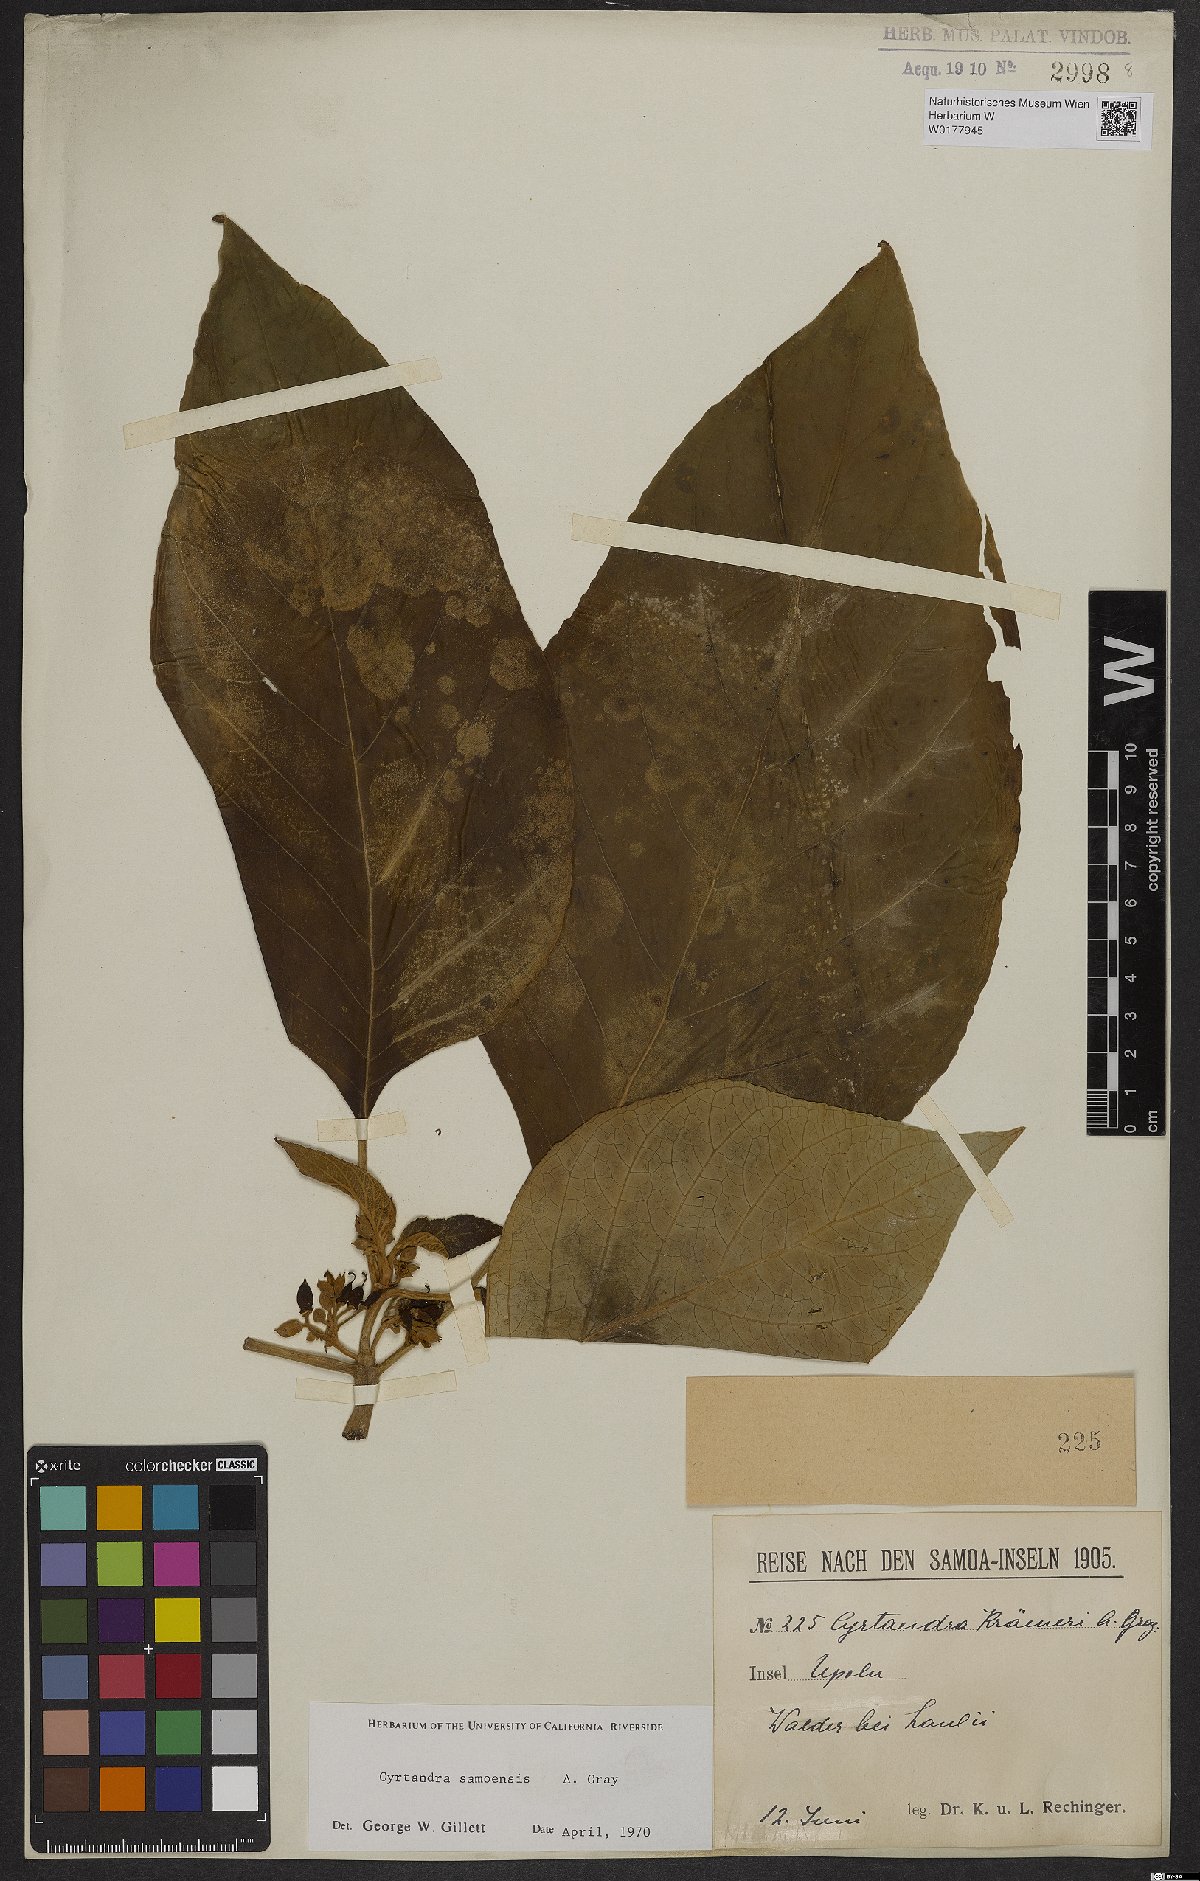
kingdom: Plantae
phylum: Tracheophyta
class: Magnoliopsida
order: Lamiales
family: Gesneriaceae
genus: Cyrtandra
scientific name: Cyrtandra samoensis
